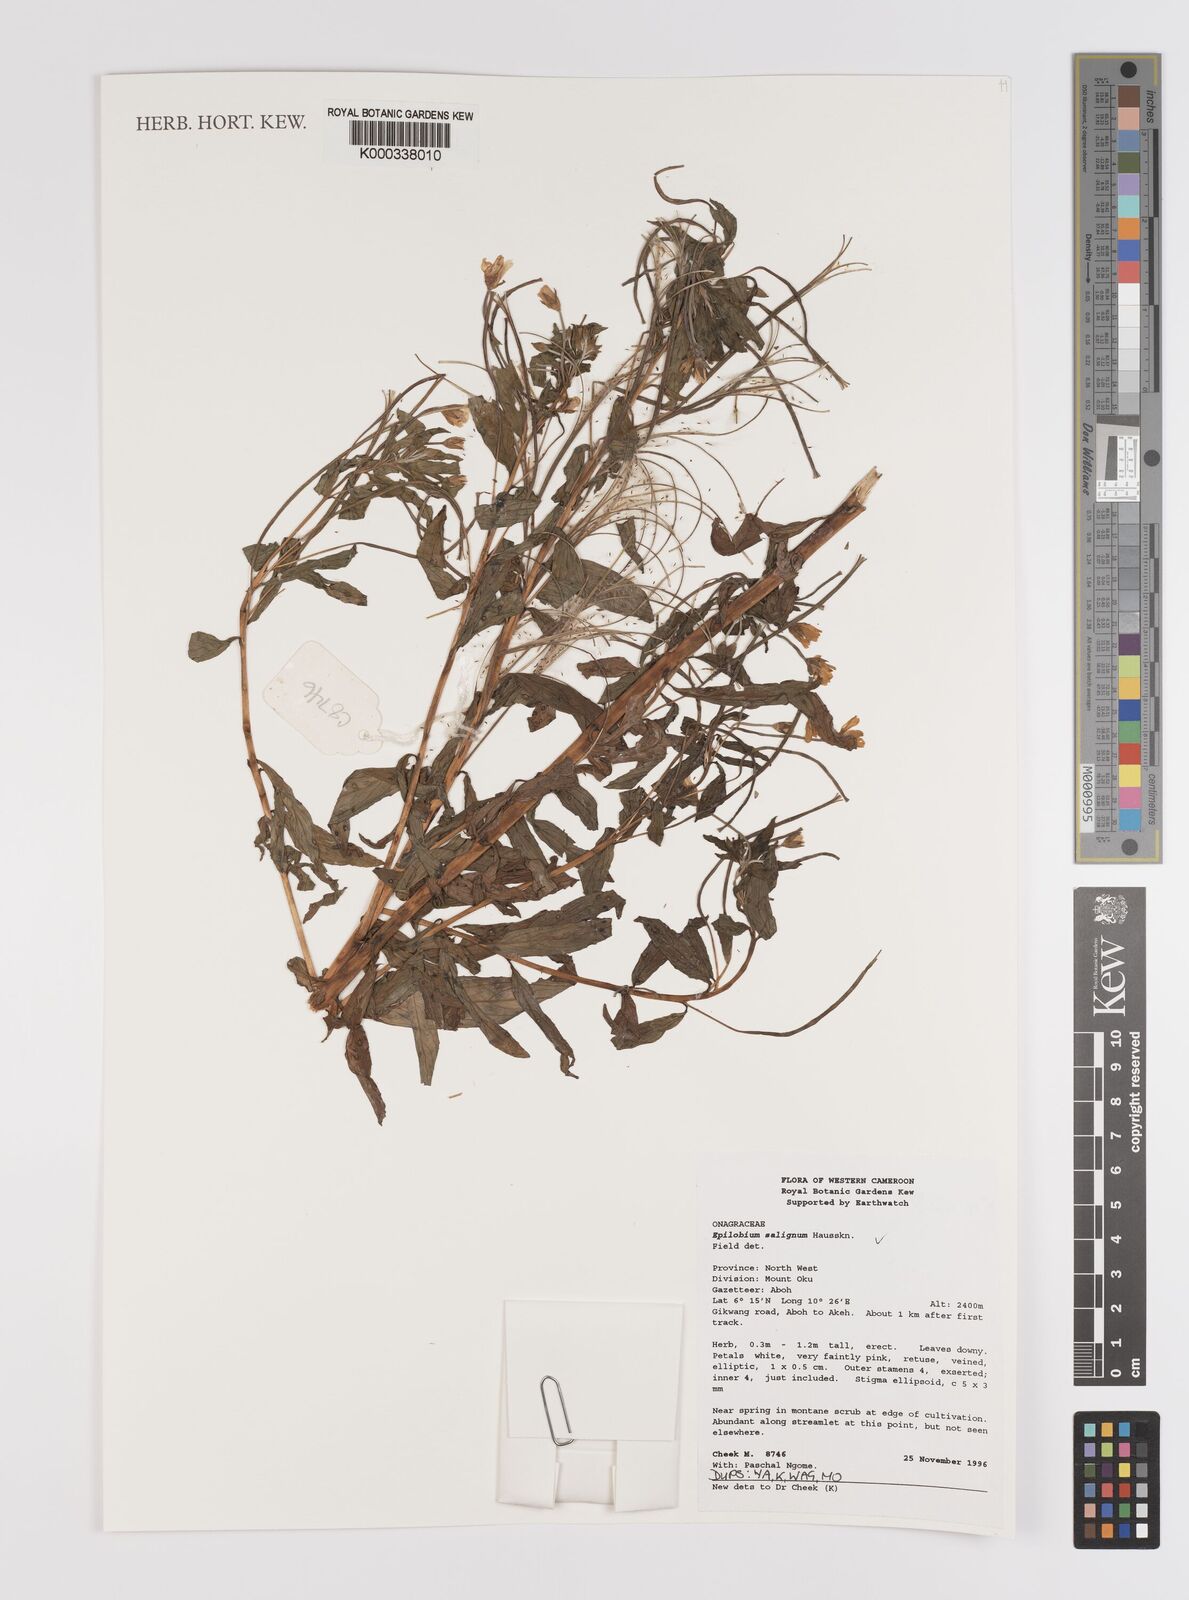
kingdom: Plantae
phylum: Tracheophyta
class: Magnoliopsida
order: Myrtales
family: Onagraceae
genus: Epilobium
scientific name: Epilobium salignum
